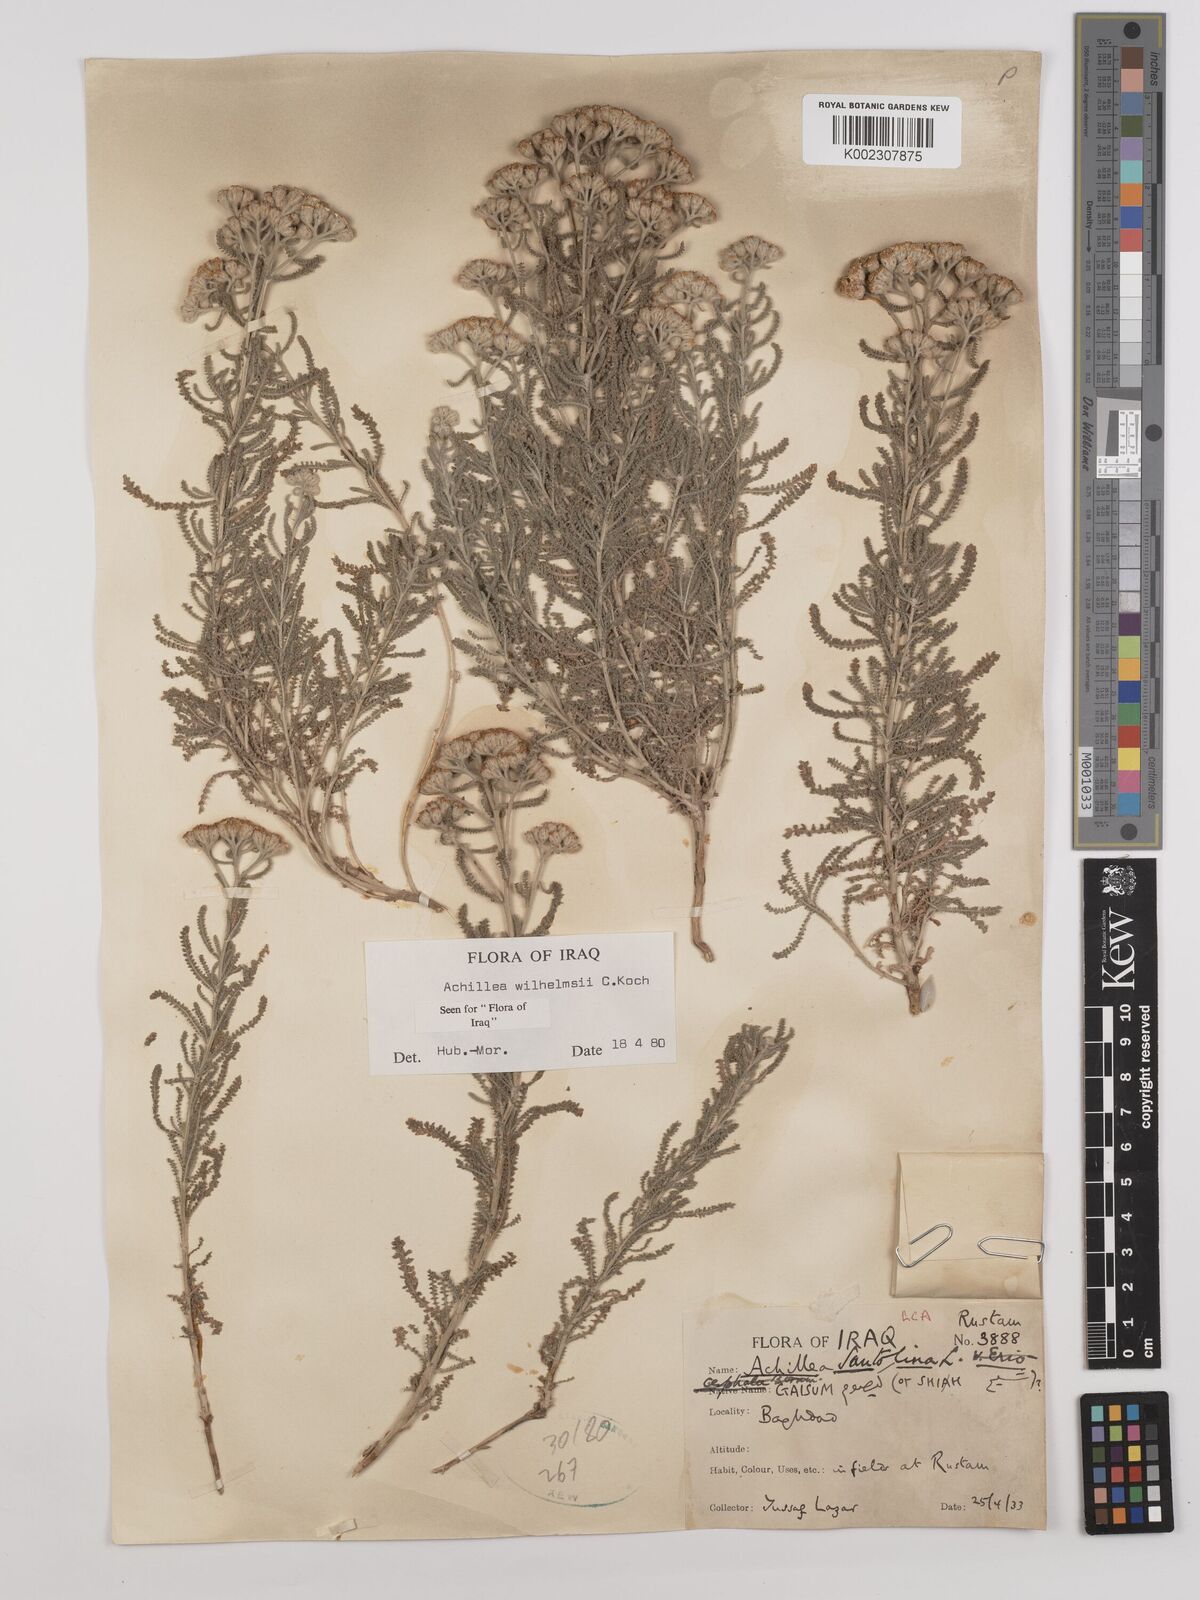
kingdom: Plantae
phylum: Tracheophyta
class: Magnoliopsida
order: Asterales
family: Asteraceae
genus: Achillea
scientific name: Achillea wilhelmsii
